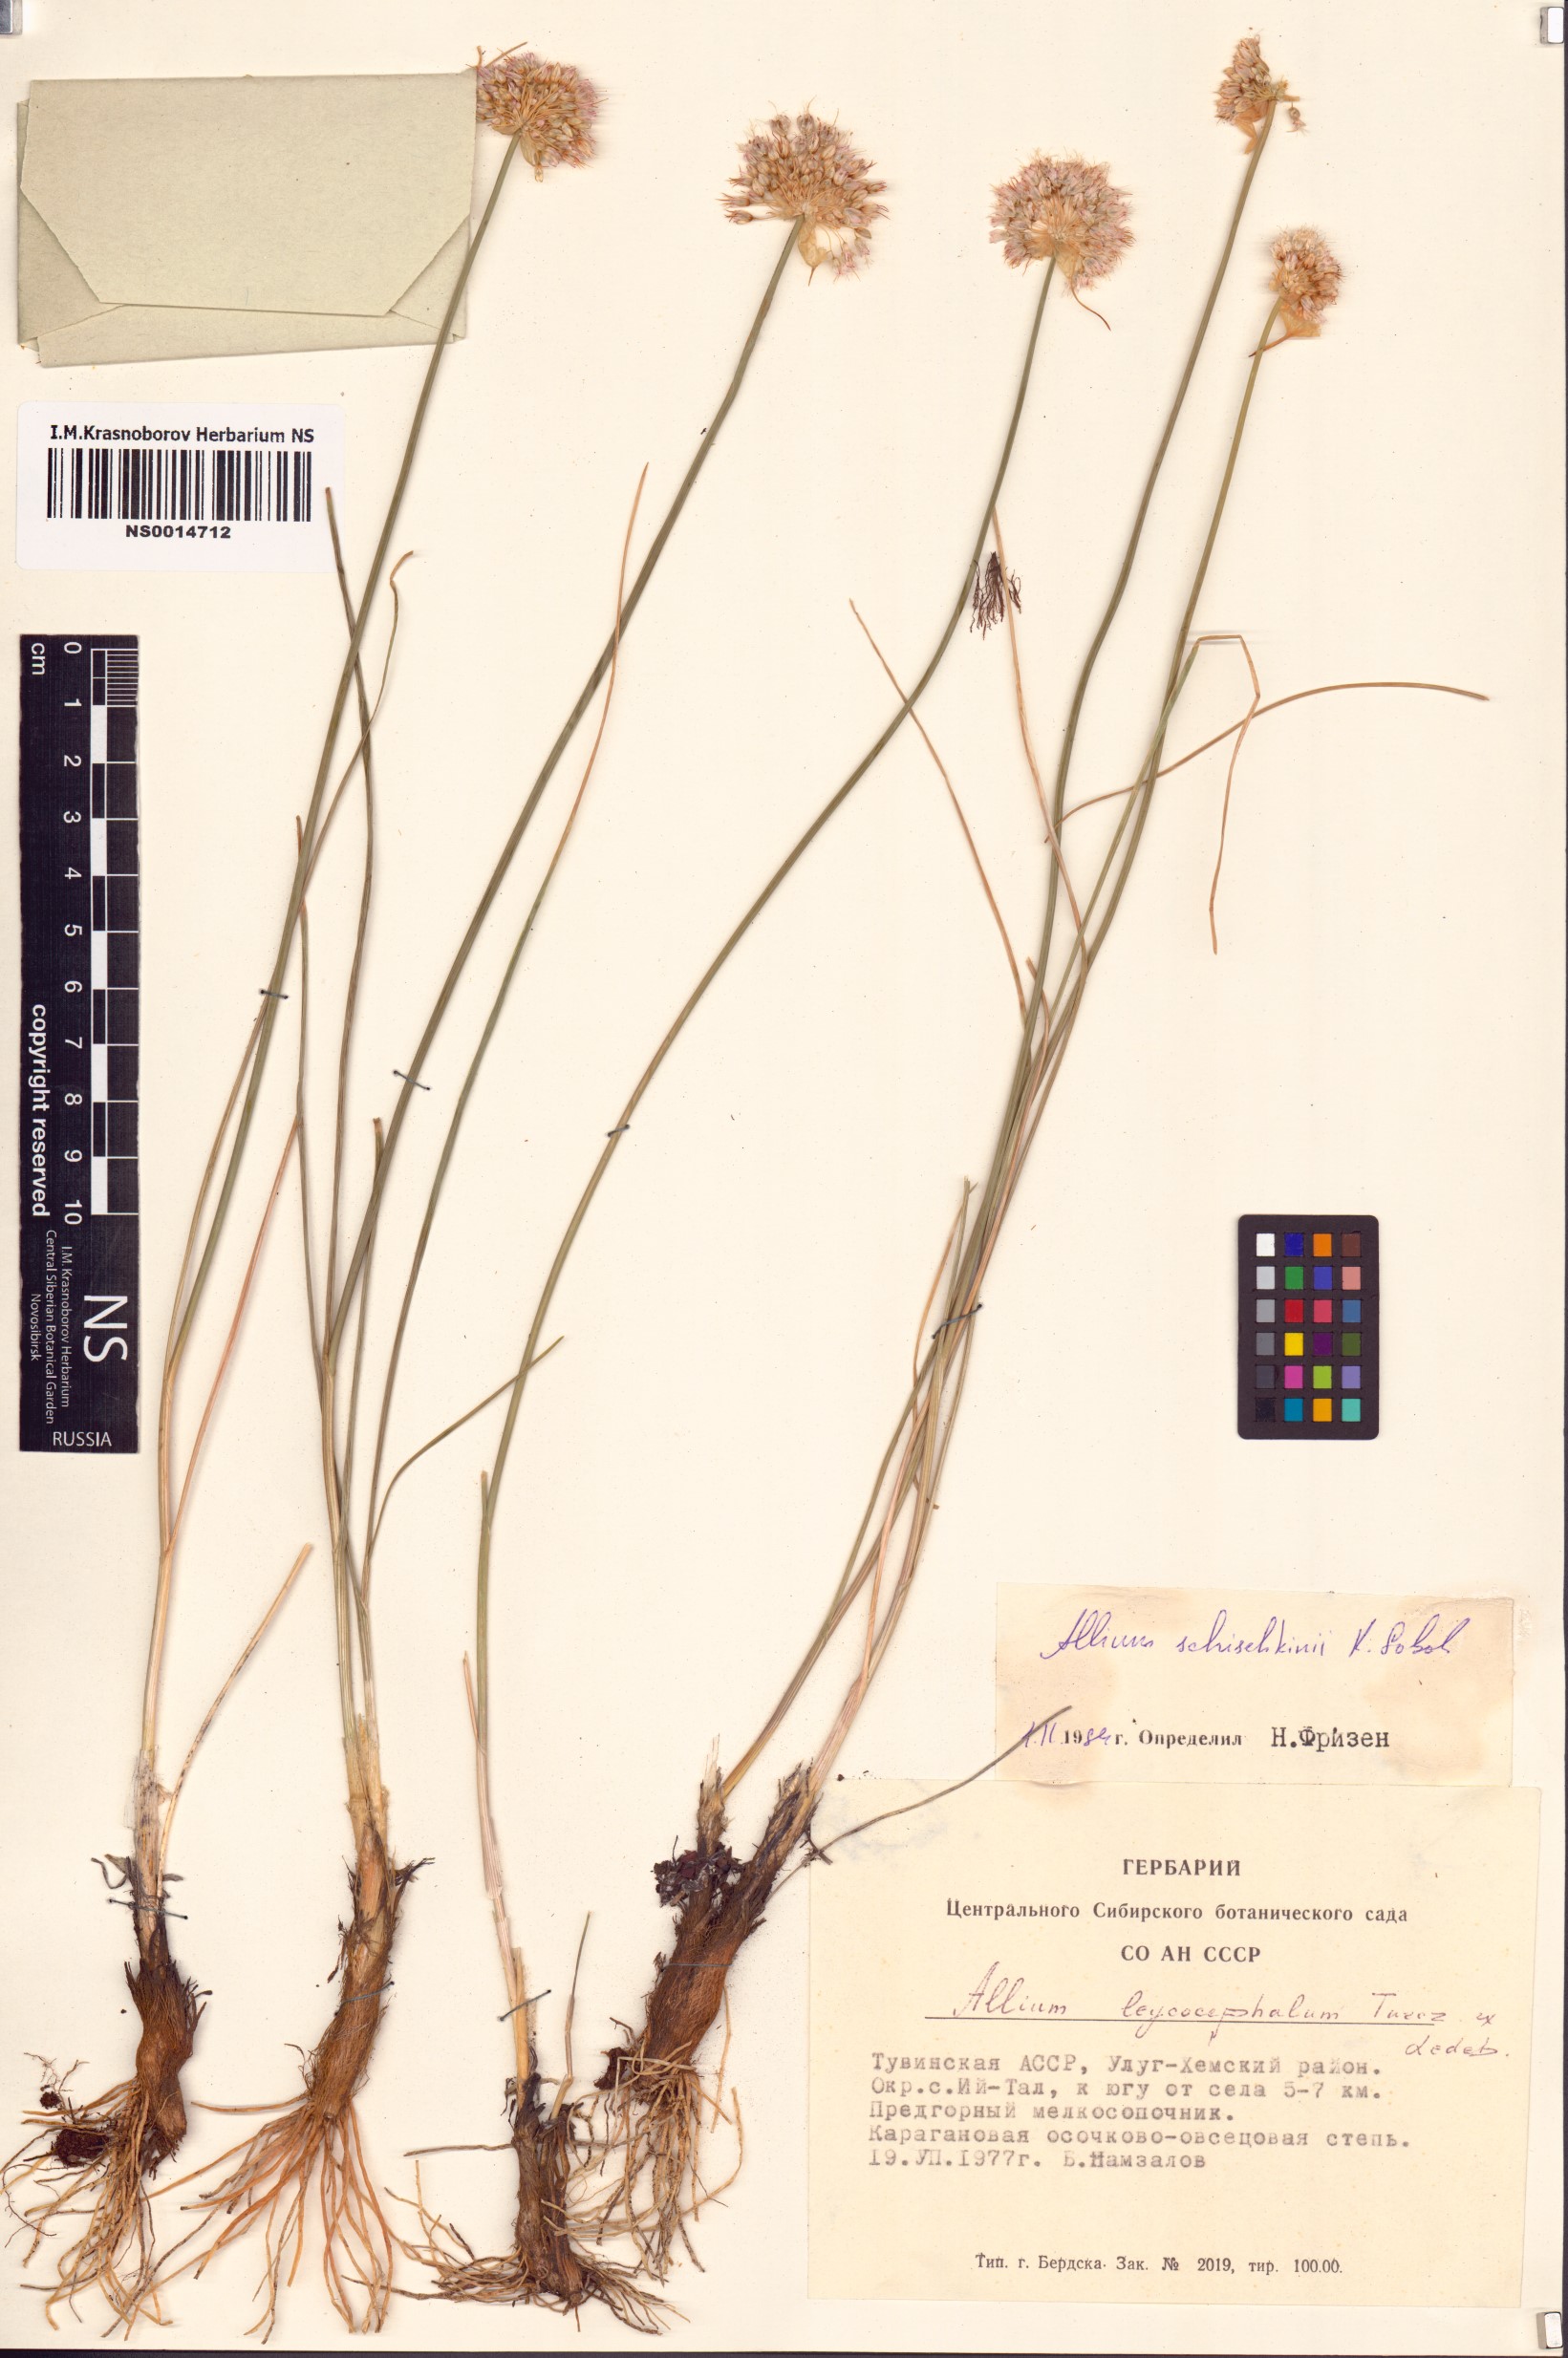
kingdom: Plantae
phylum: Tracheophyta
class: Liliopsida
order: Asparagales
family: Amaryllidaceae
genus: Allium
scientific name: Allium schischkinii
